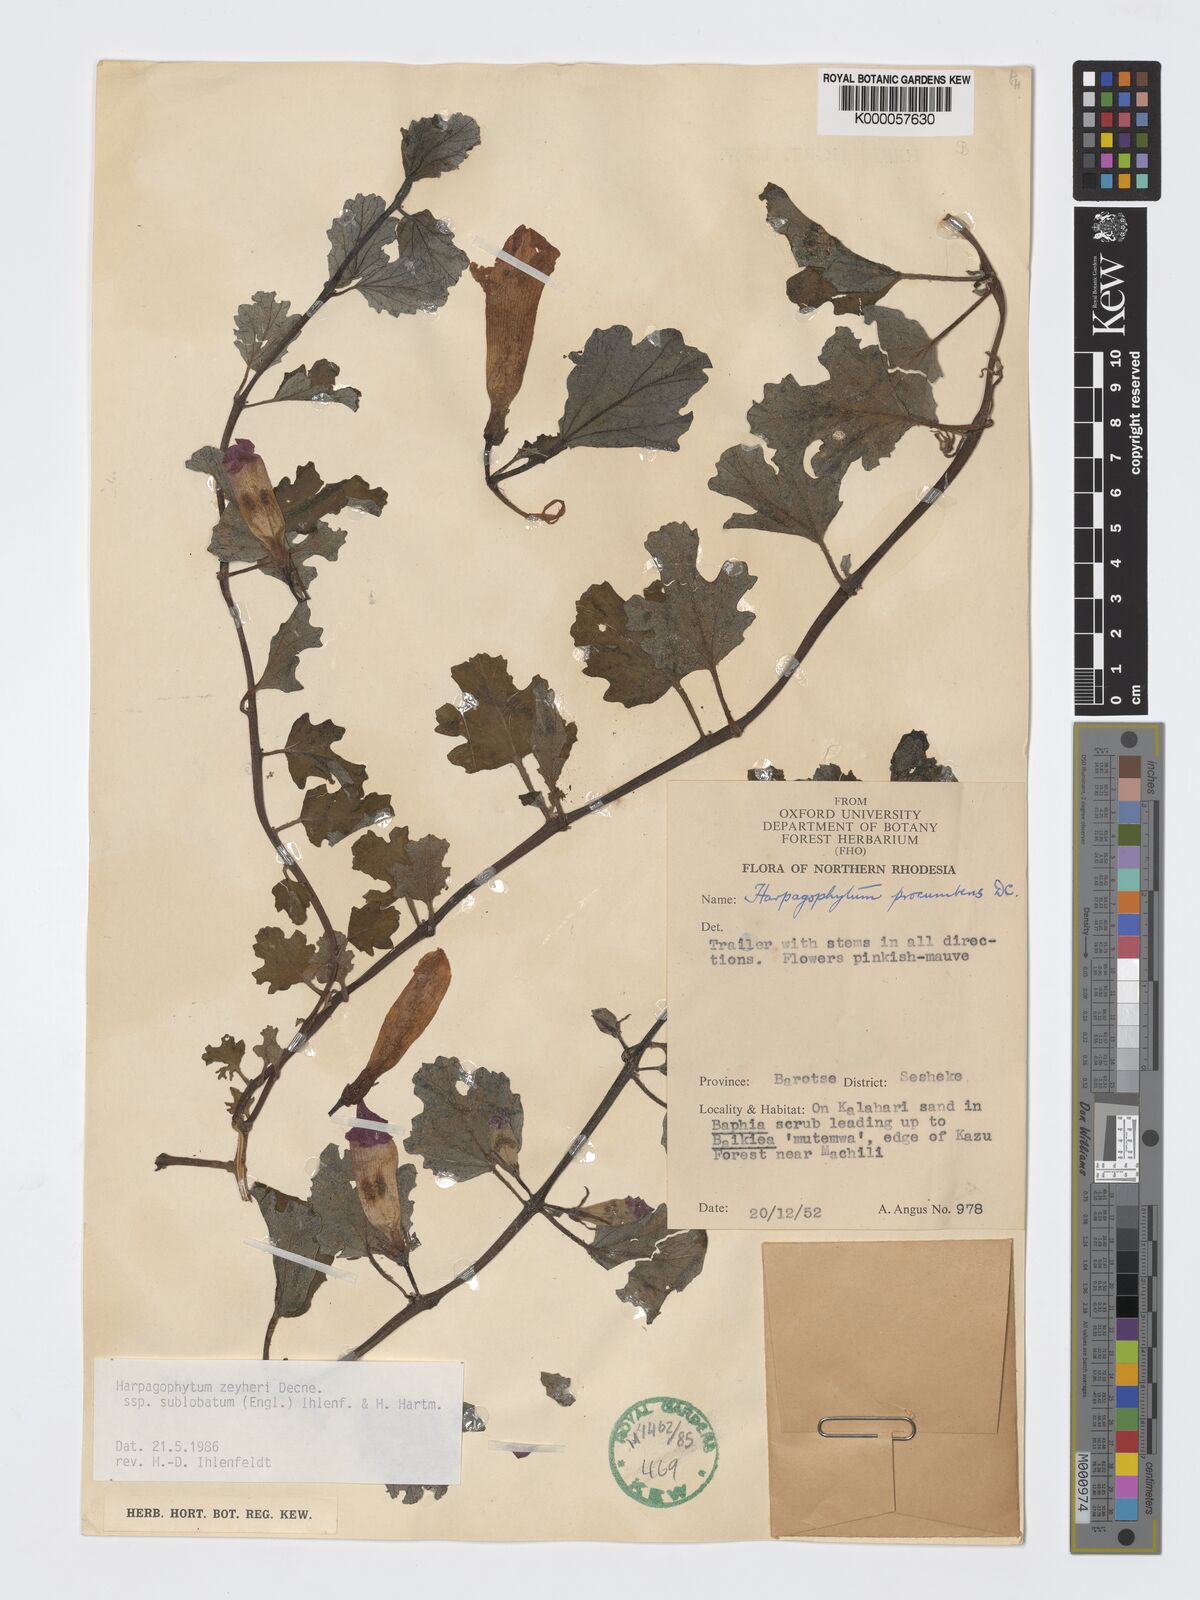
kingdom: Plantae
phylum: Tracheophyta
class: Magnoliopsida
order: Lamiales
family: Pedaliaceae
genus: Harpagophytum
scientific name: Harpagophytum zeyheri
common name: Grappleplant
